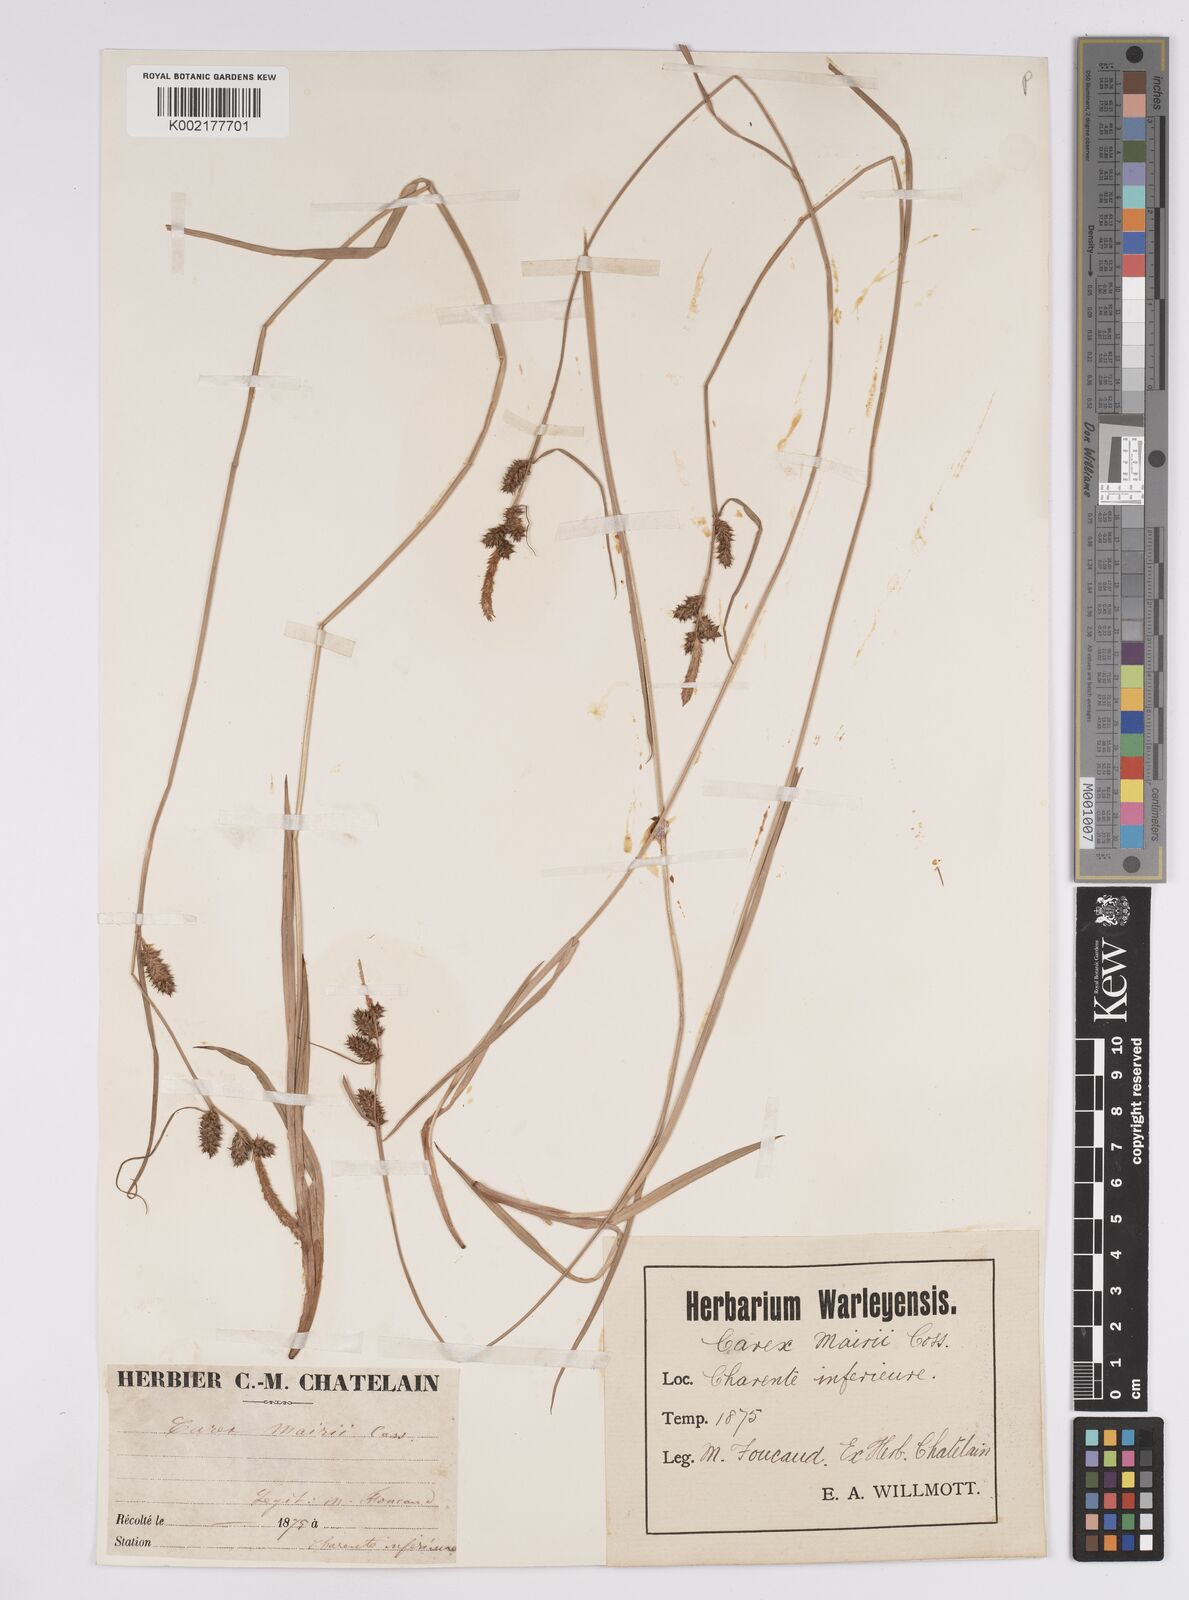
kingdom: Plantae
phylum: Tracheophyta
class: Liliopsida
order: Poales
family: Cyperaceae
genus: Carex
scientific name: Carex mairei
